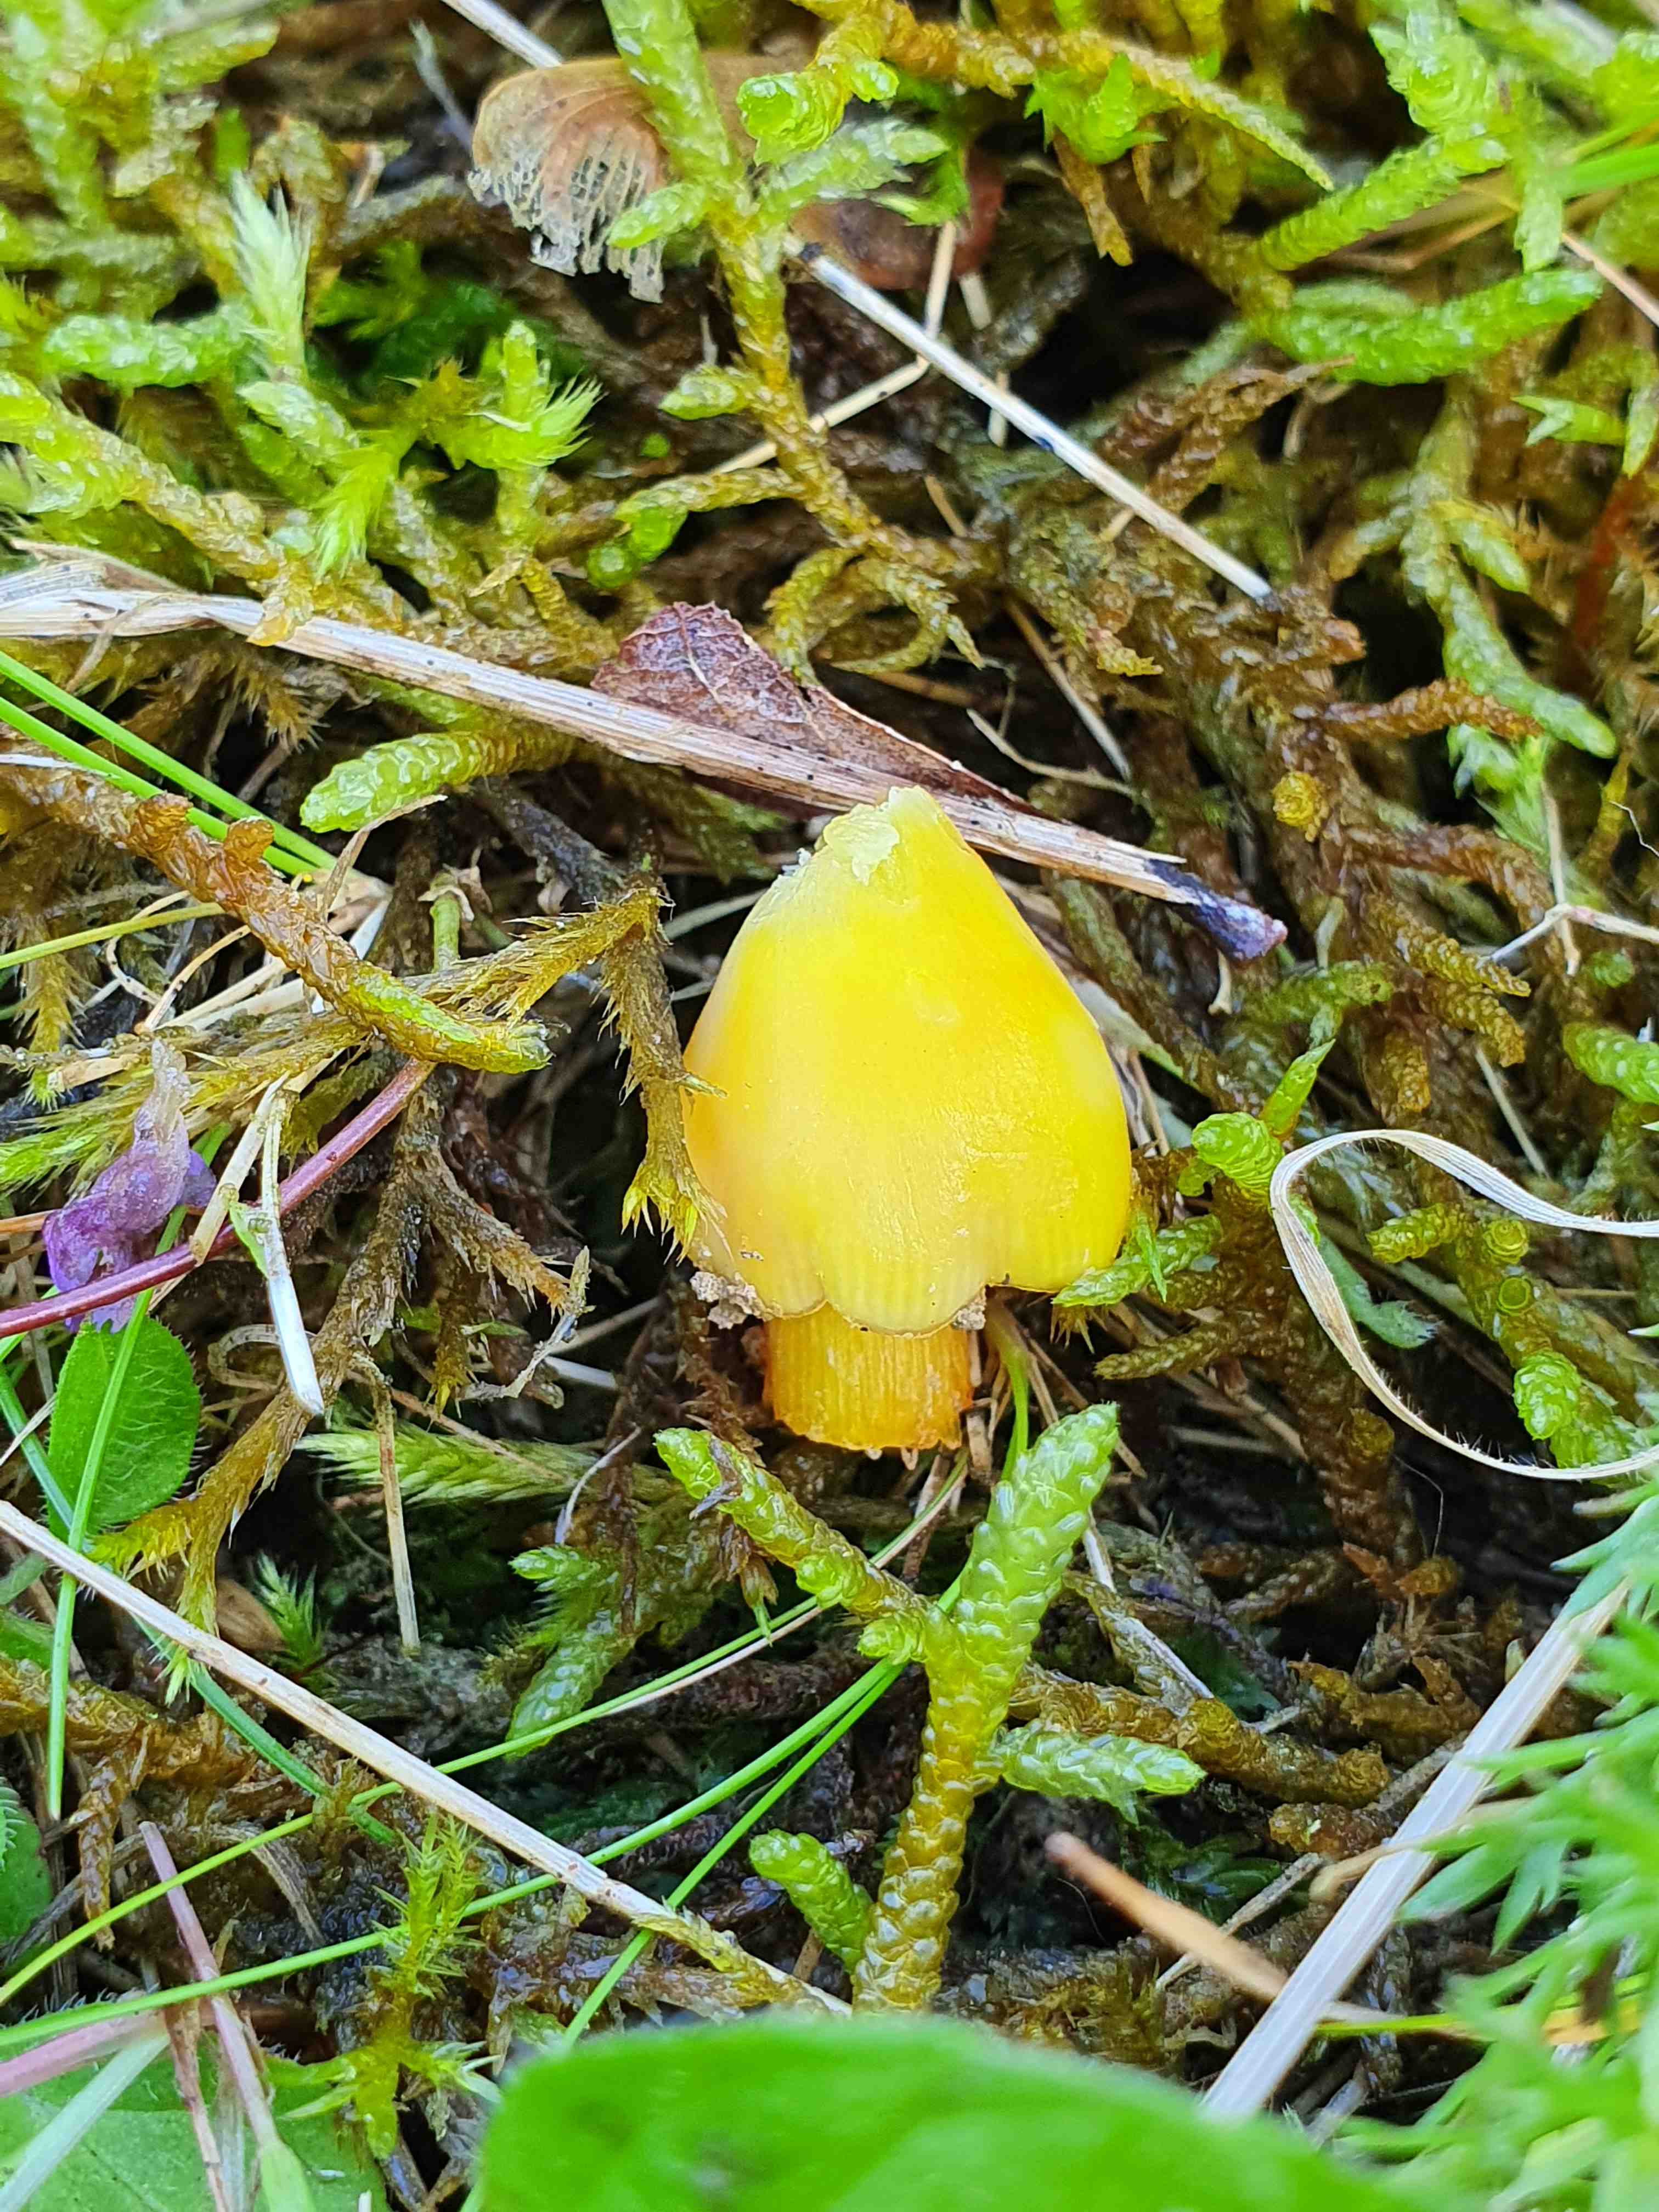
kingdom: Fungi
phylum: Basidiomycota
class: Agaricomycetes
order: Agaricales
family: Hygrophoraceae
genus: Hygrocybe
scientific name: Hygrocybe acutoconica
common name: Konrads vokshat
